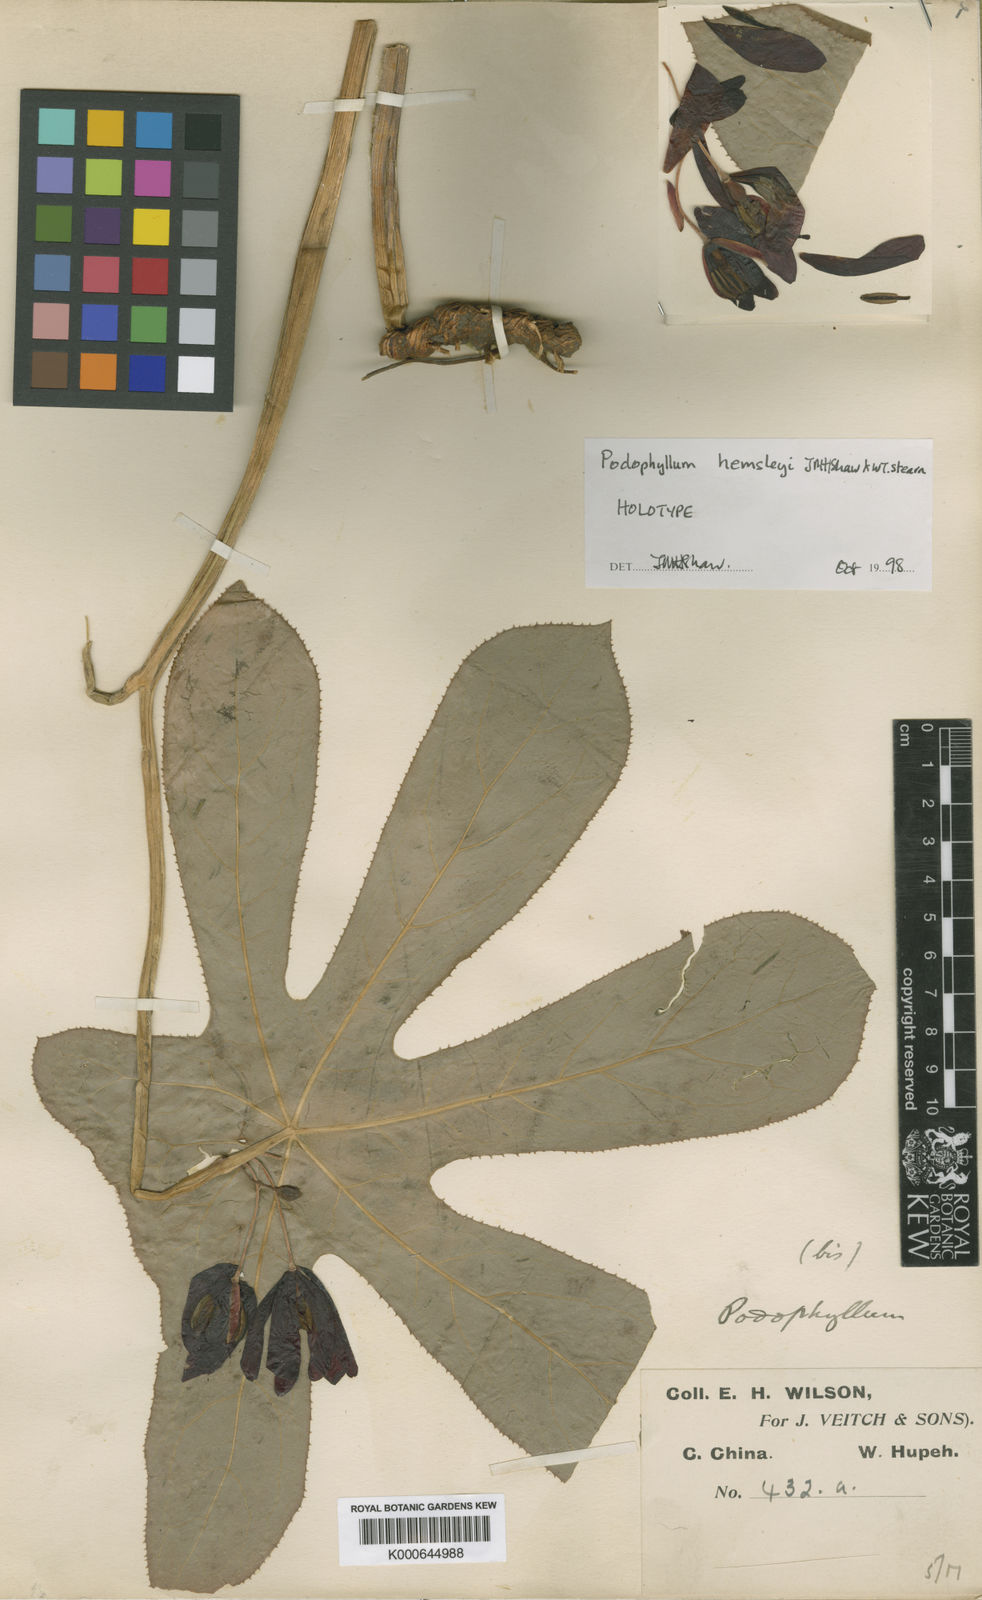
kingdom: Plantae
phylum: Tracheophyta
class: Magnoliopsida
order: Ranunculales
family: Berberidaceae
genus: Dysosma
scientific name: Dysosma delavayi
